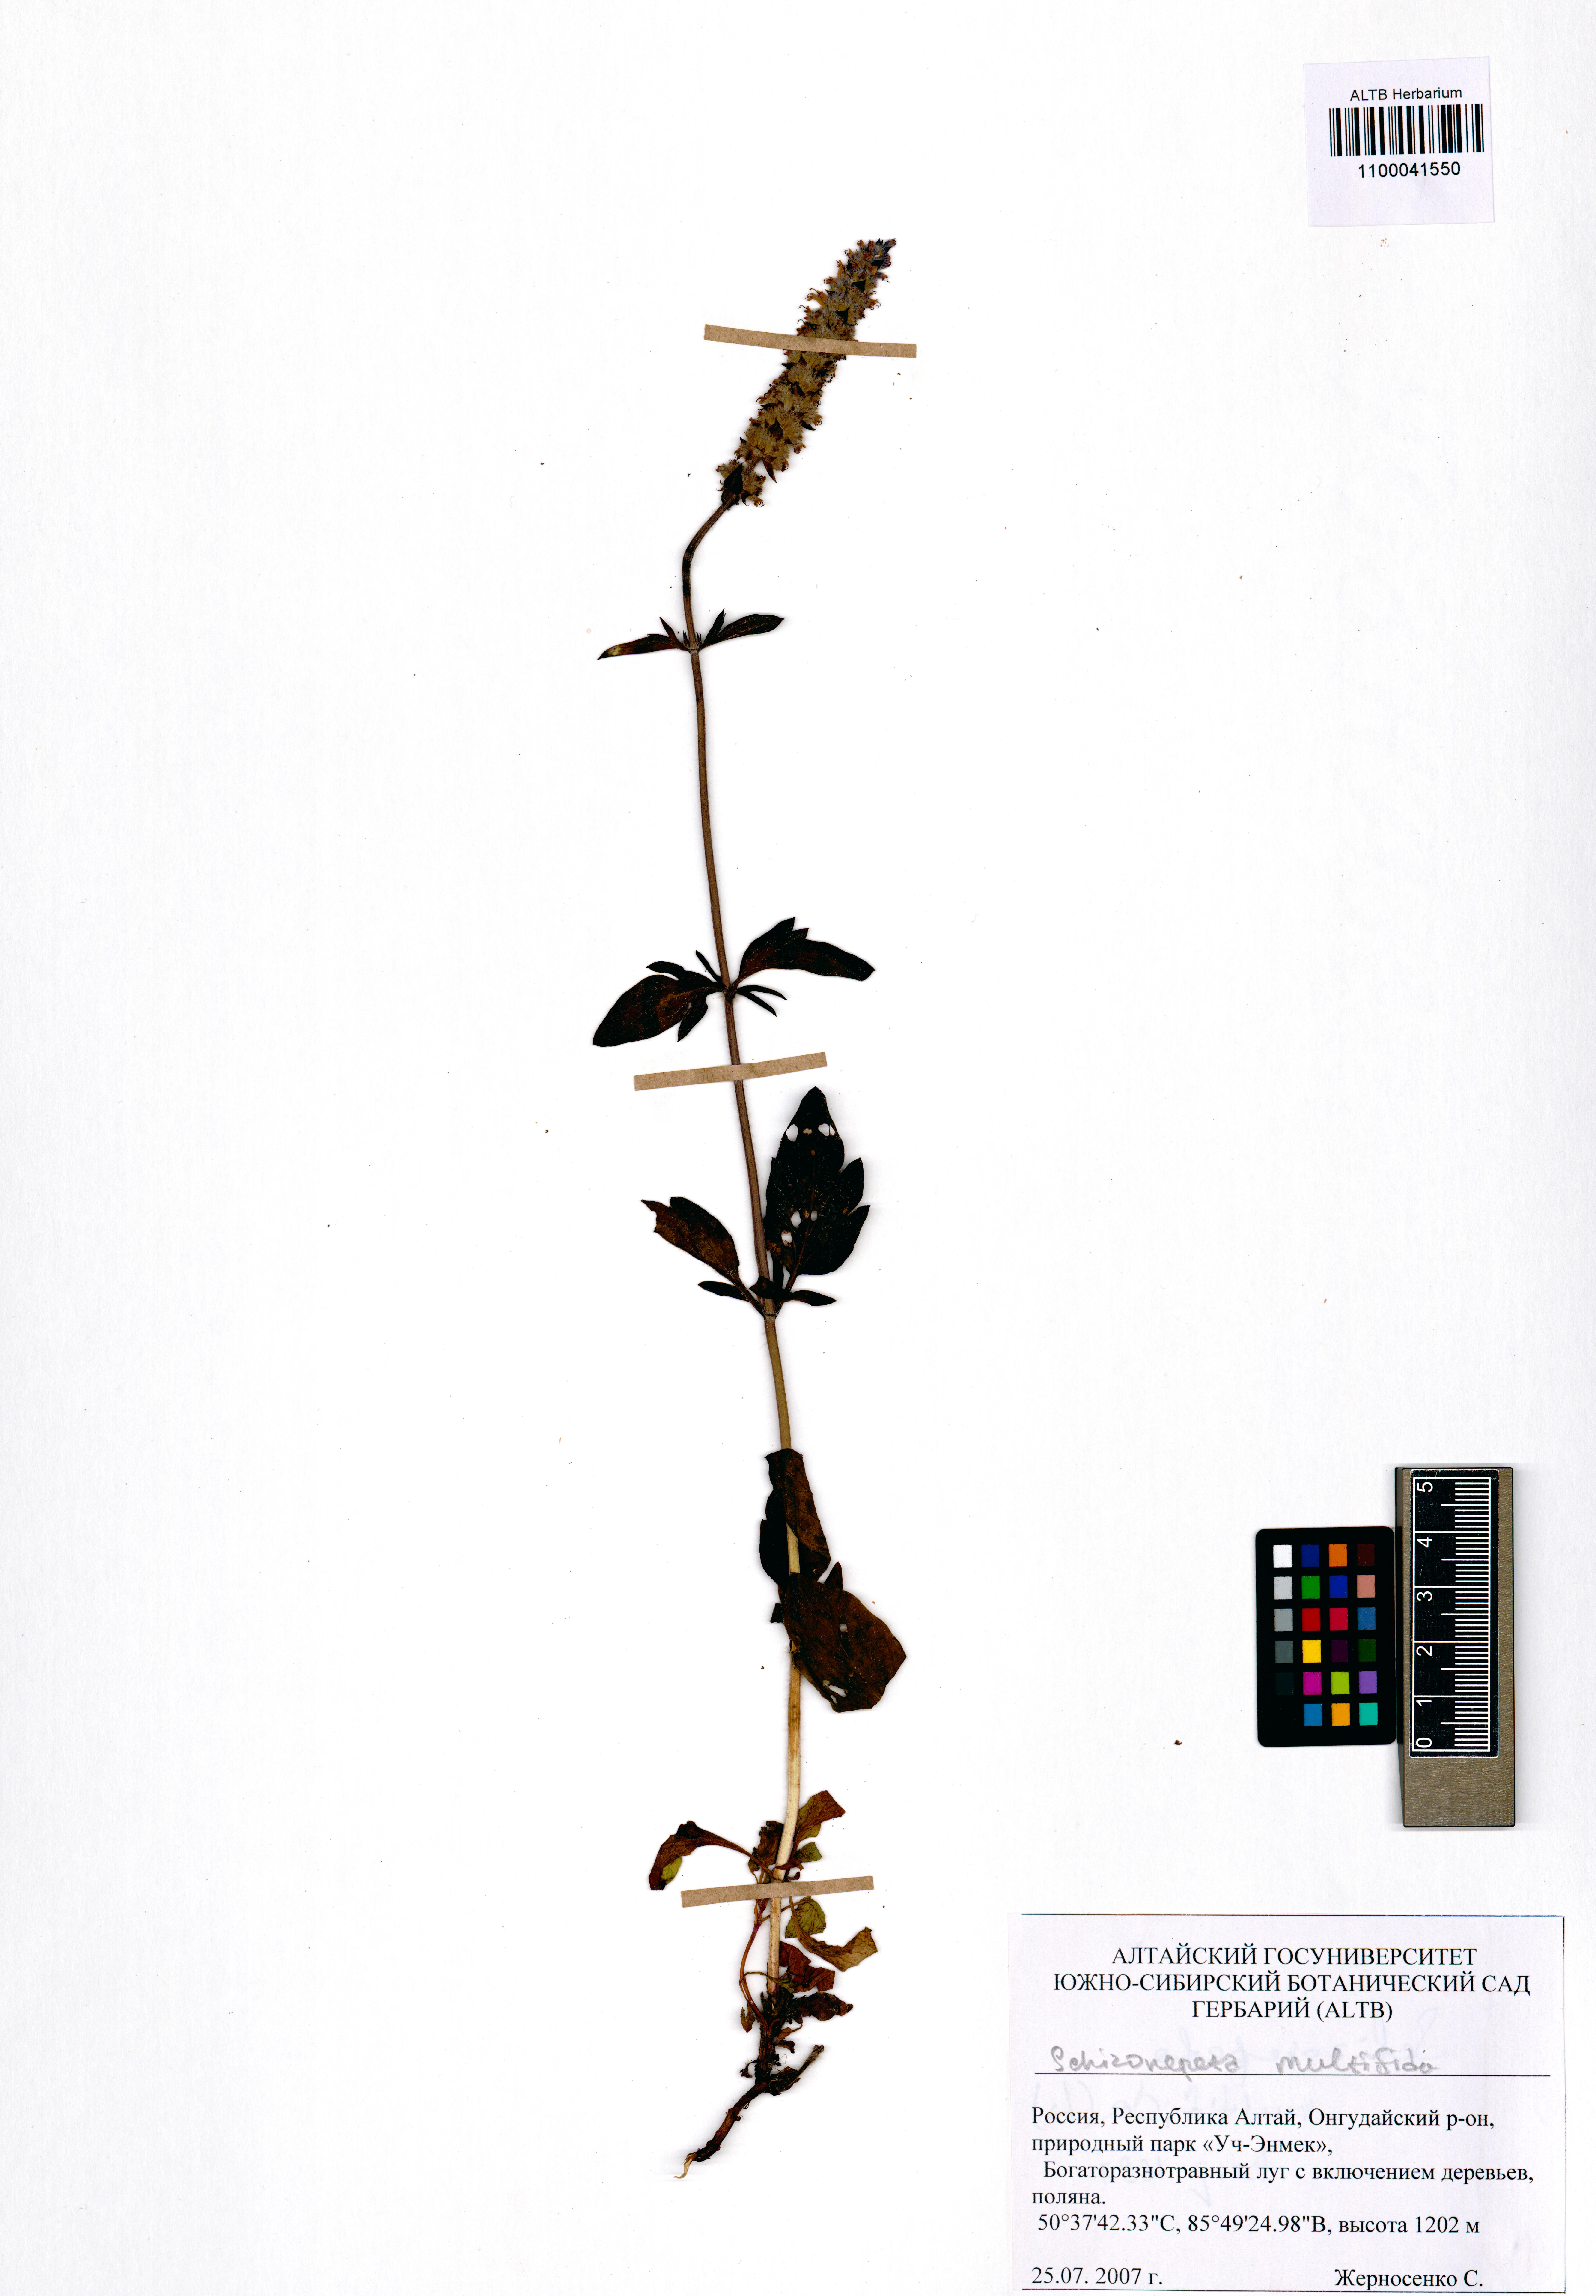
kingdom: Plantae
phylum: Tracheophyta
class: Magnoliopsida
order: Lamiales
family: Lamiaceae
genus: Nepeta
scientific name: Nepeta multifida
